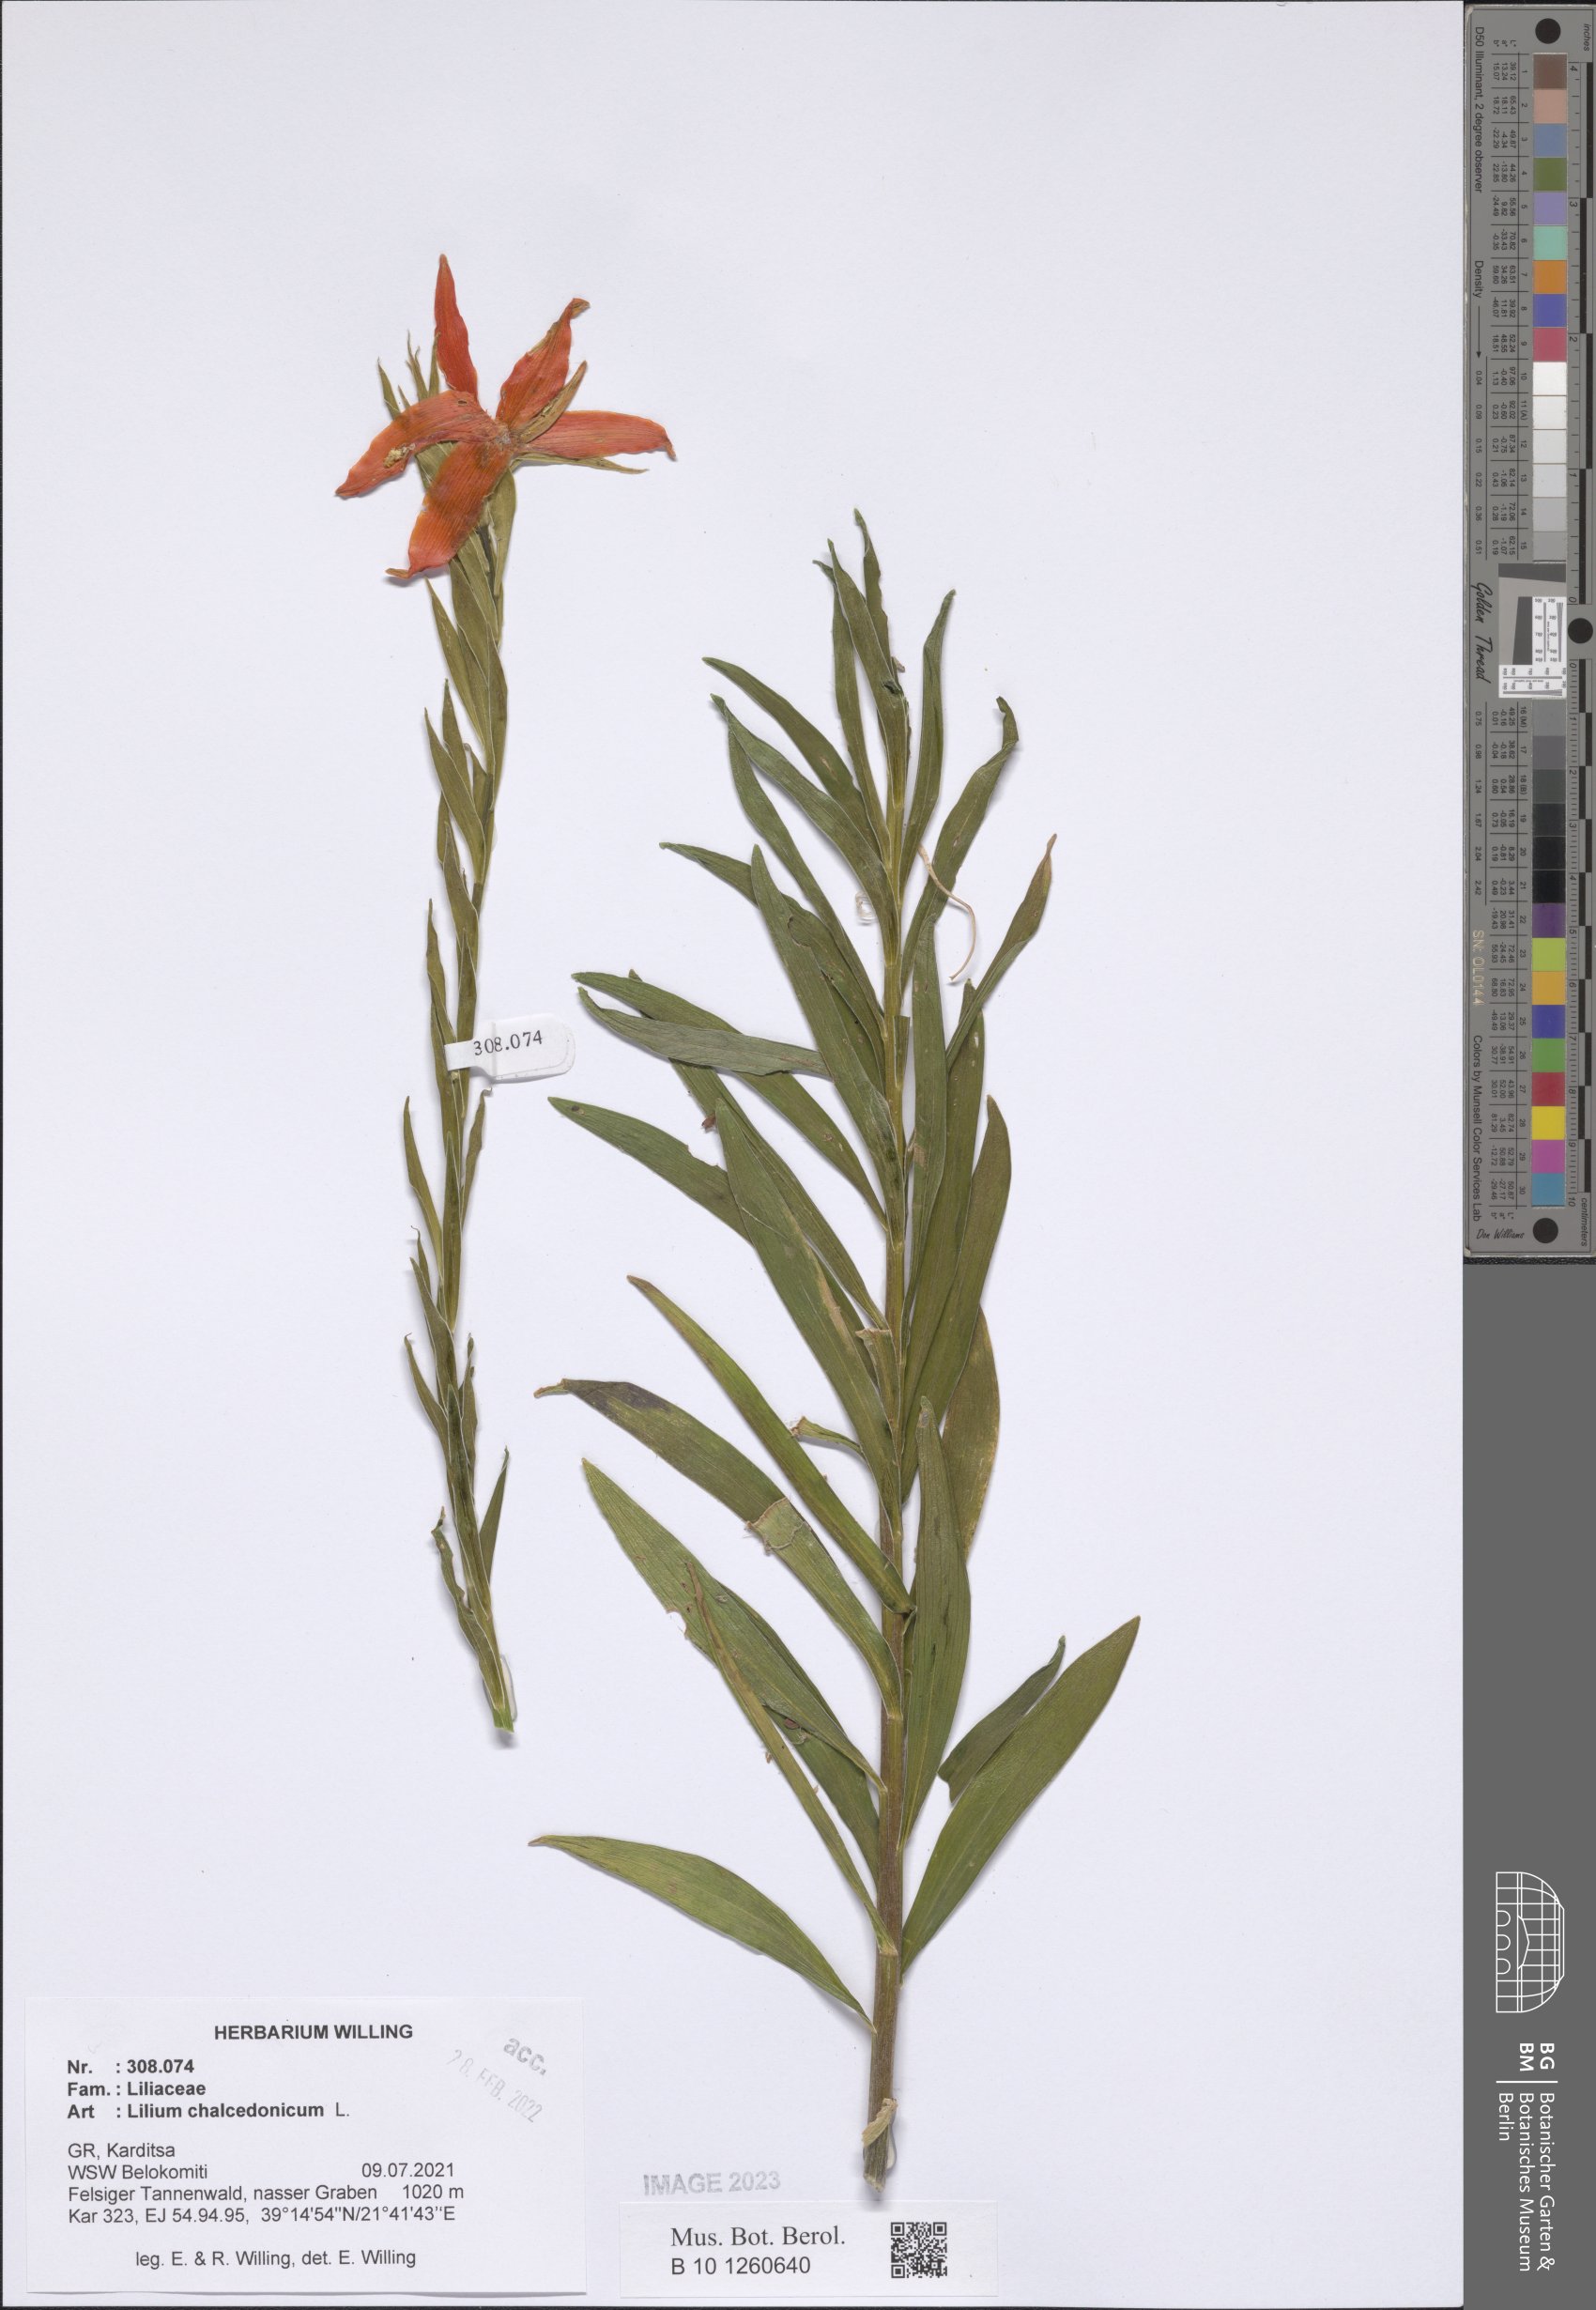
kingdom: Plantae
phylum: Tracheophyta
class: Liliopsida
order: Liliales
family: Liliaceae
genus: Lilium
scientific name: Lilium chalcedonicum
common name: Red martagon of constantinople
